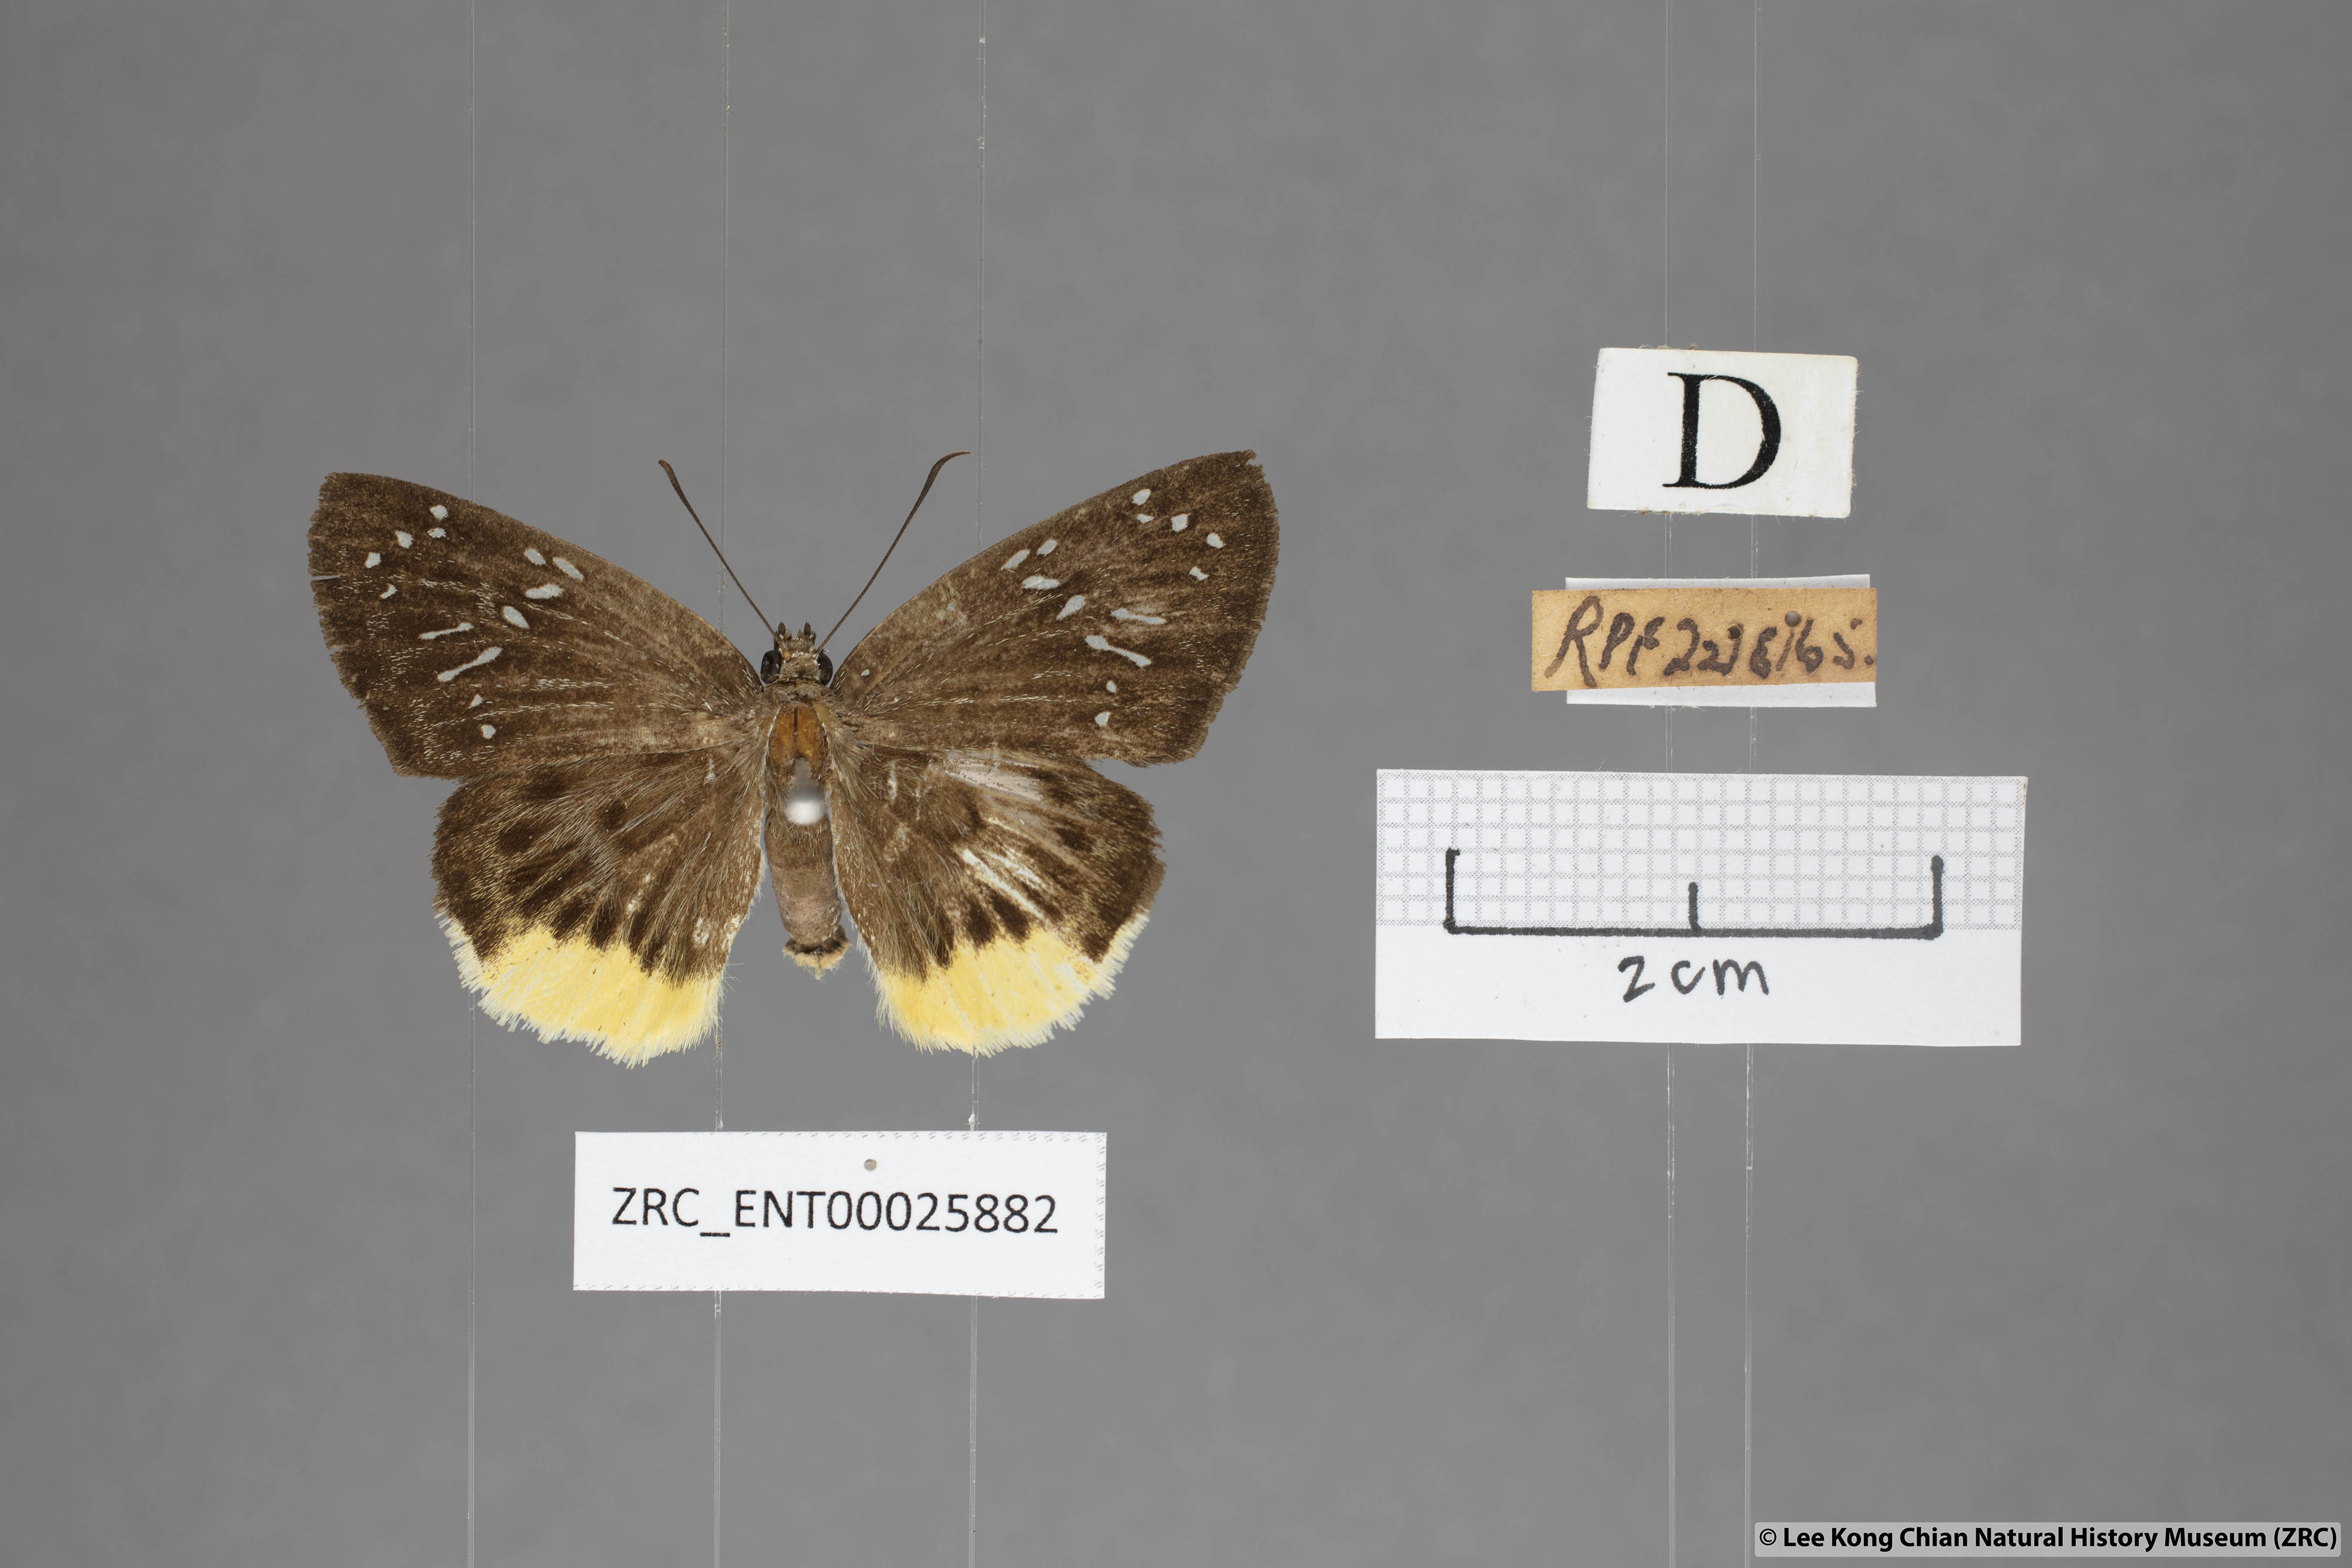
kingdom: Animalia
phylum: Arthropoda
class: Insecta
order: Lepidoptera
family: Hesperiidae
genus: Mooreana
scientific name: Mooreana trichoneura
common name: Yellow flat
